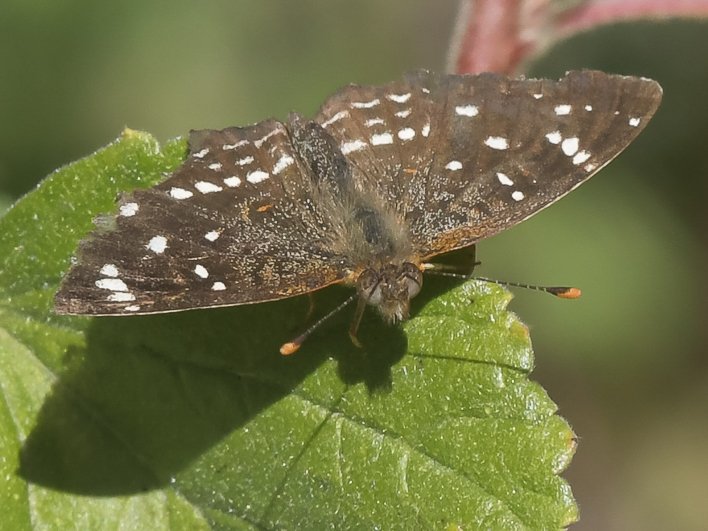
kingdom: Animalia
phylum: Arthropoda
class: Insecta
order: Lepidoptera
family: Nymphalidae
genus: Anthanassa
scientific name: Anthanassa texana
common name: Texan Crescent
